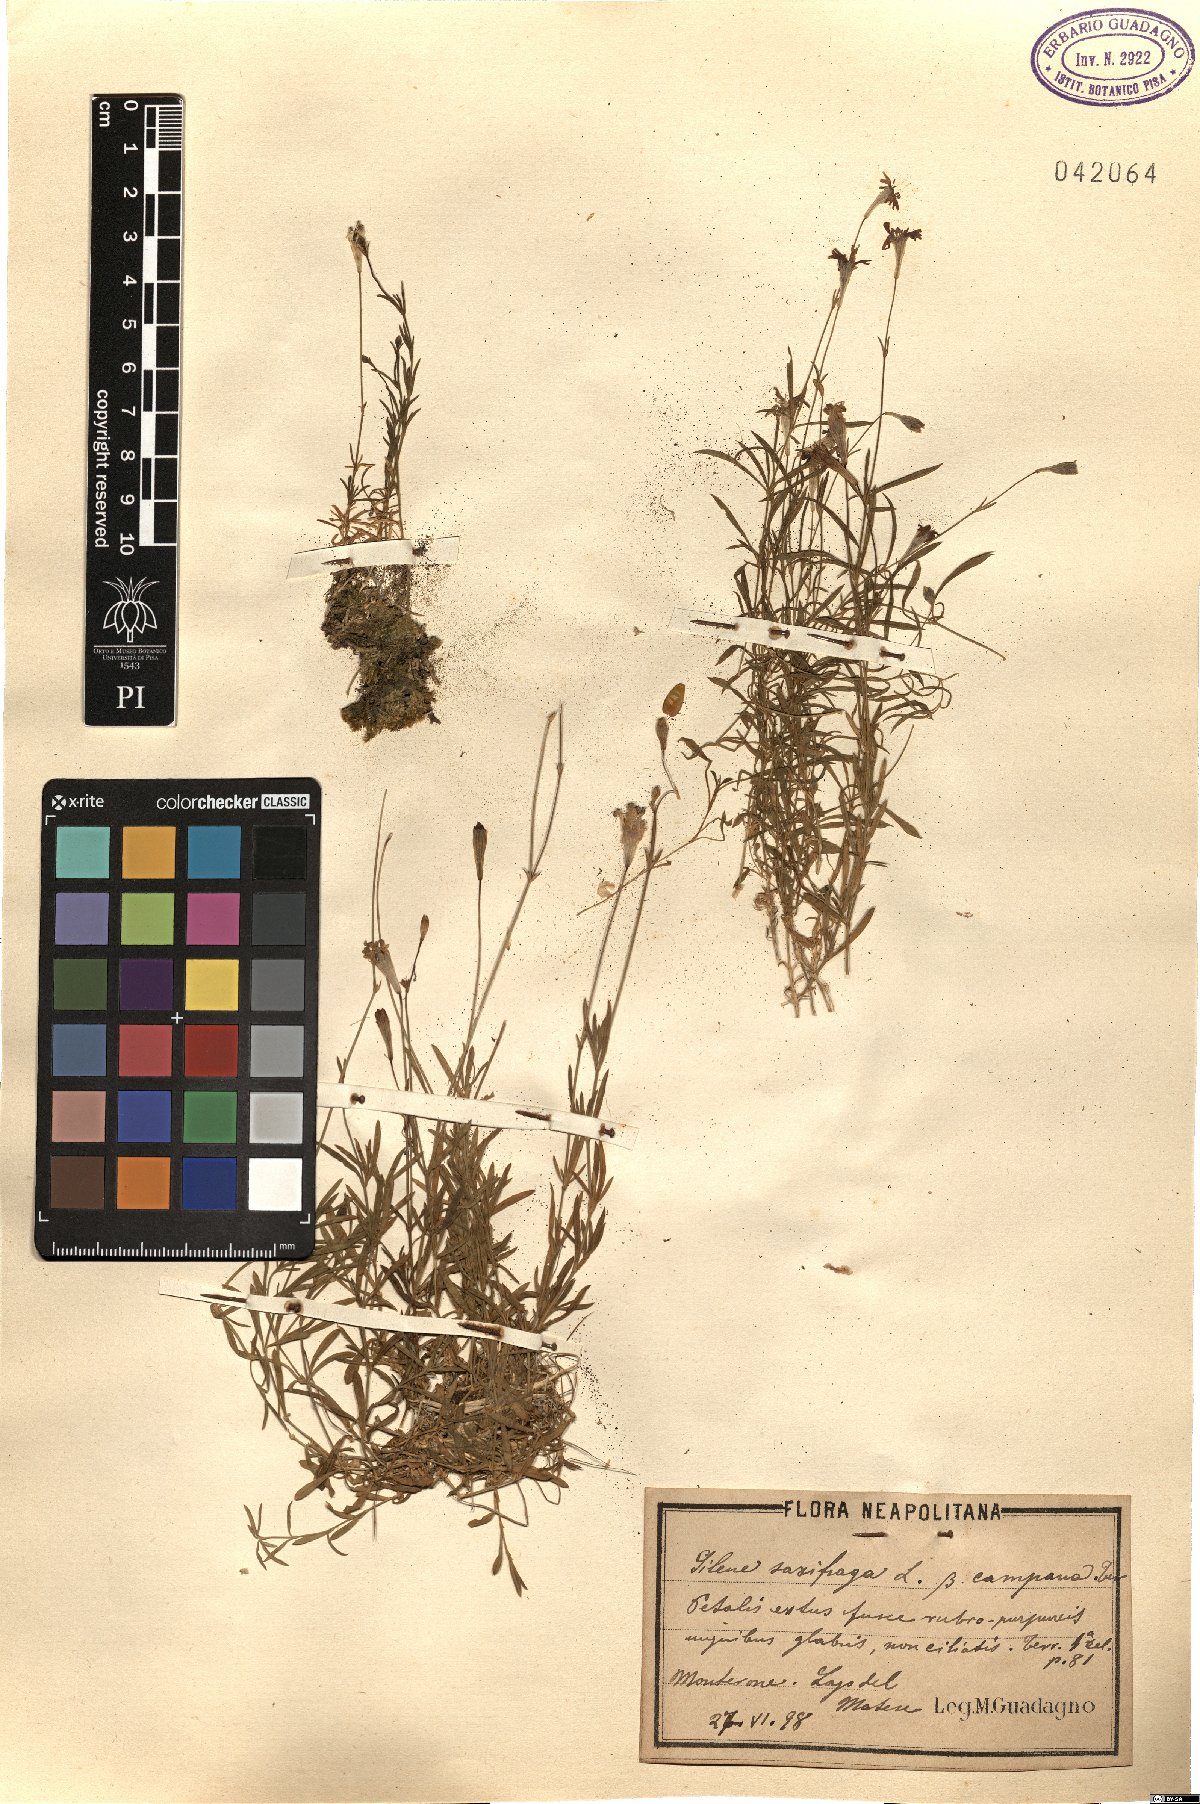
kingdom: Plantae
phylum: Tracheophyta
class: Magnoliopsida
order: Caryophyllales
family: Caryophyllaceae
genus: Silene
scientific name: Silene saxifraga
